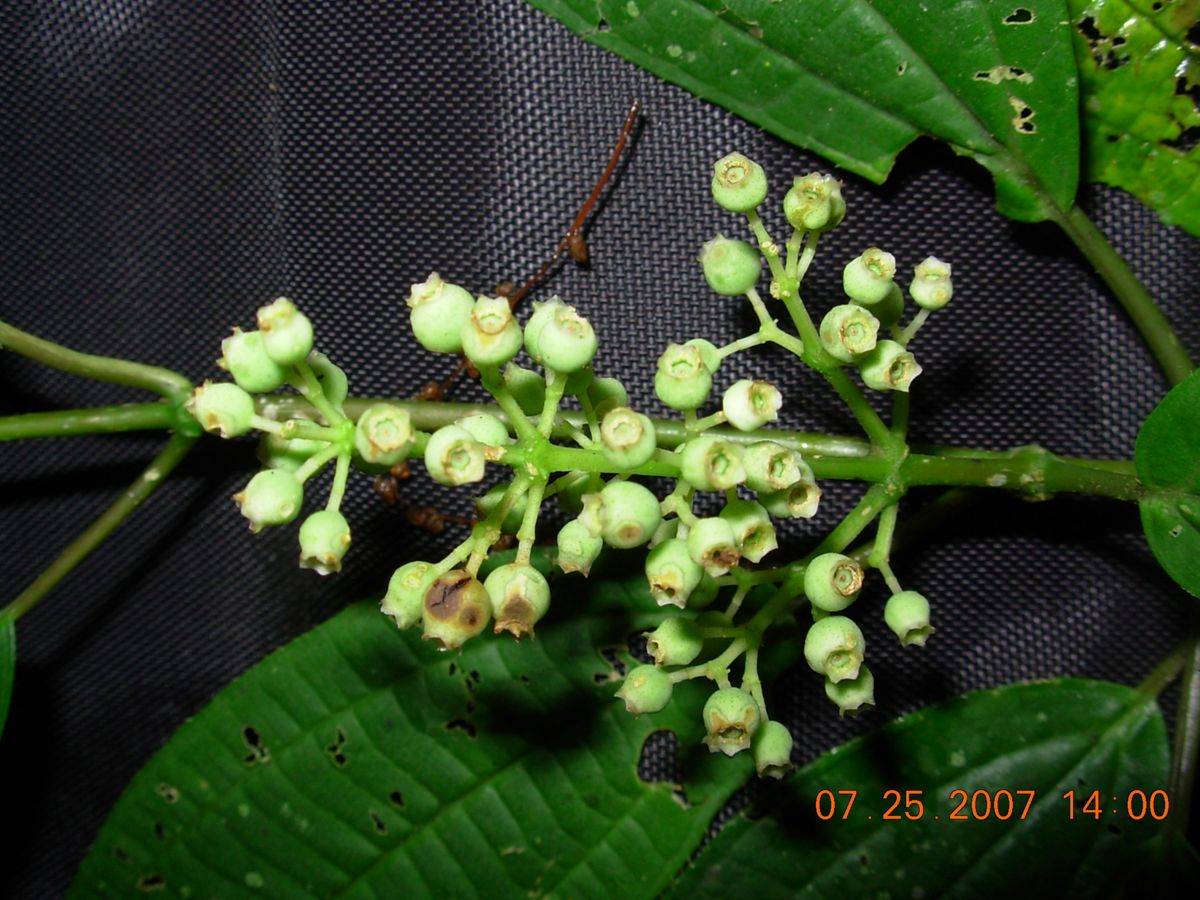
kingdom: Plantae
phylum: Tracheophyta
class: Magnoliopsida
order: Myrtales
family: Melastomataceae
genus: Miconia
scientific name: Miconia glaberrima
